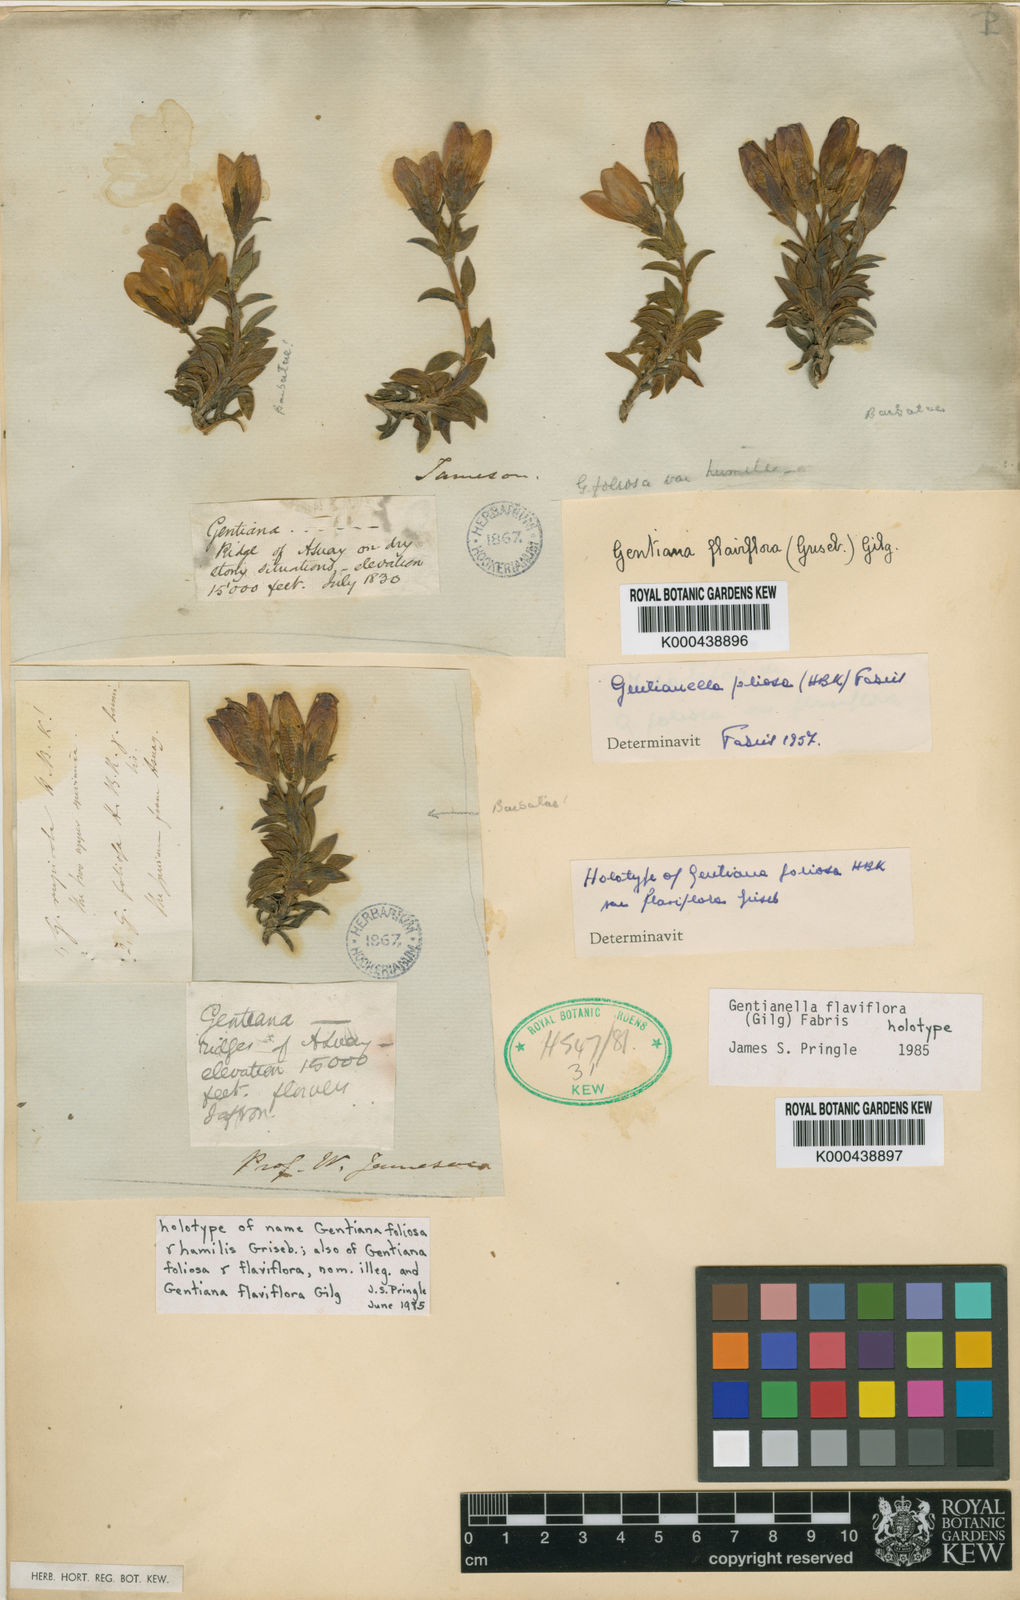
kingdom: Plantae
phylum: Tracheophyta
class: Magnoliopsida
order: Gentianales
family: Gentianaceae
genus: Gentianella
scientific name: Gentianella flaviflora
